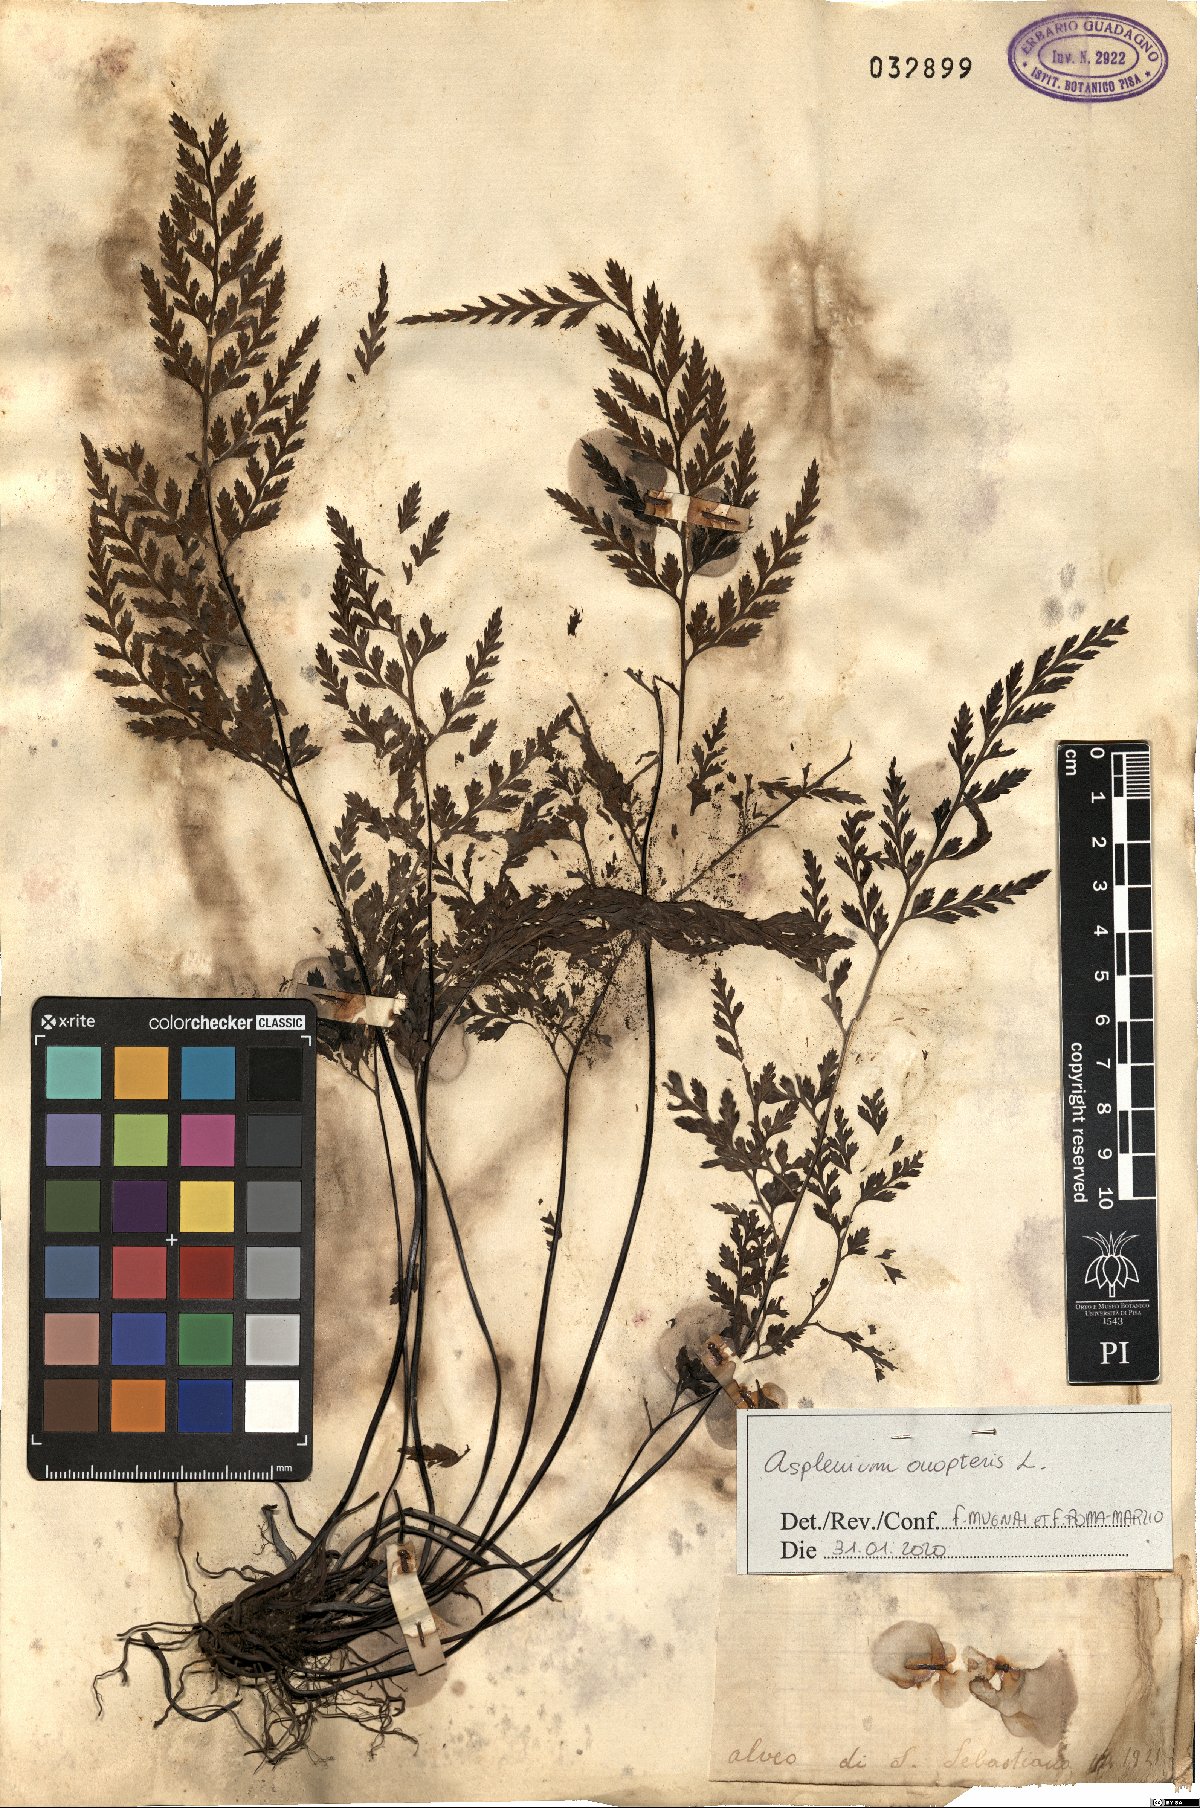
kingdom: Plantae
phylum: Tracheophyta
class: Polypodiopsida
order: Polypodiales
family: Aspleniaceae
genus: Asplenium
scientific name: Asplenium onopteris
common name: Irish spleenwort
